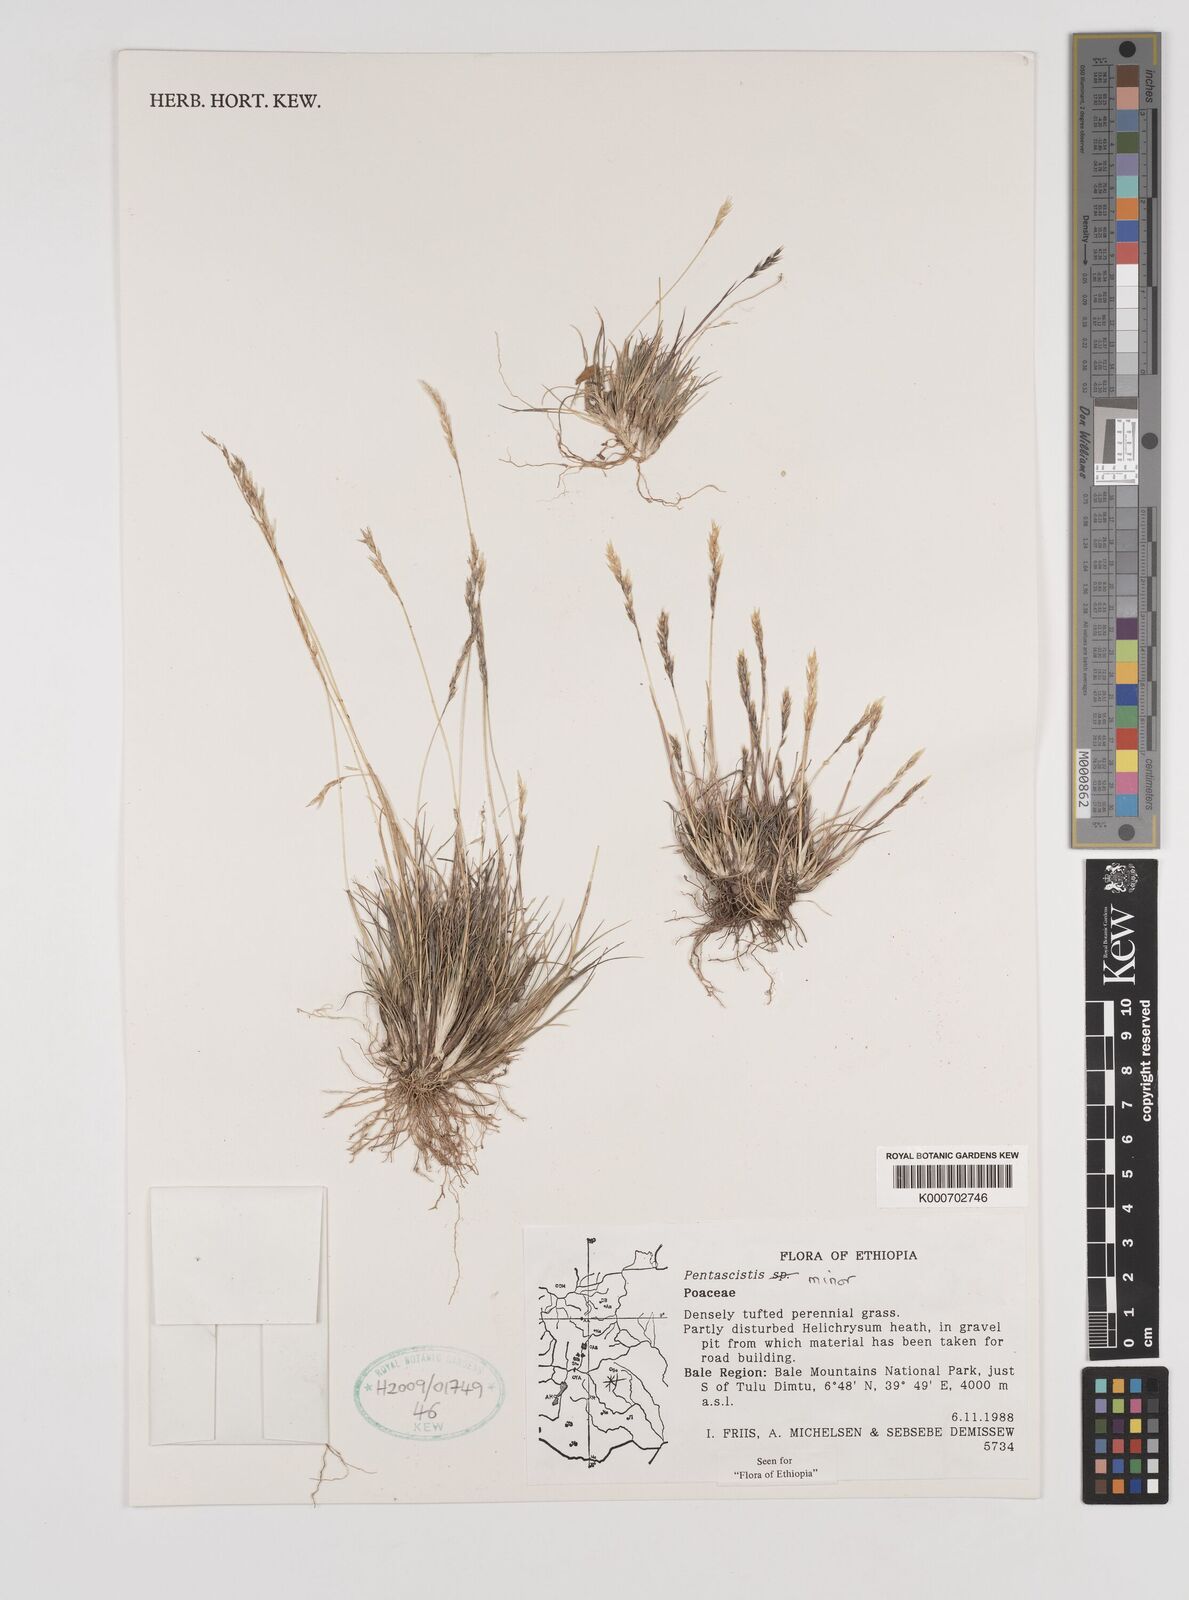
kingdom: Plantae
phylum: Tracheophyta
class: Liliopsida
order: Poales
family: Poaceae
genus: Pentameris
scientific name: Pentameris minor
